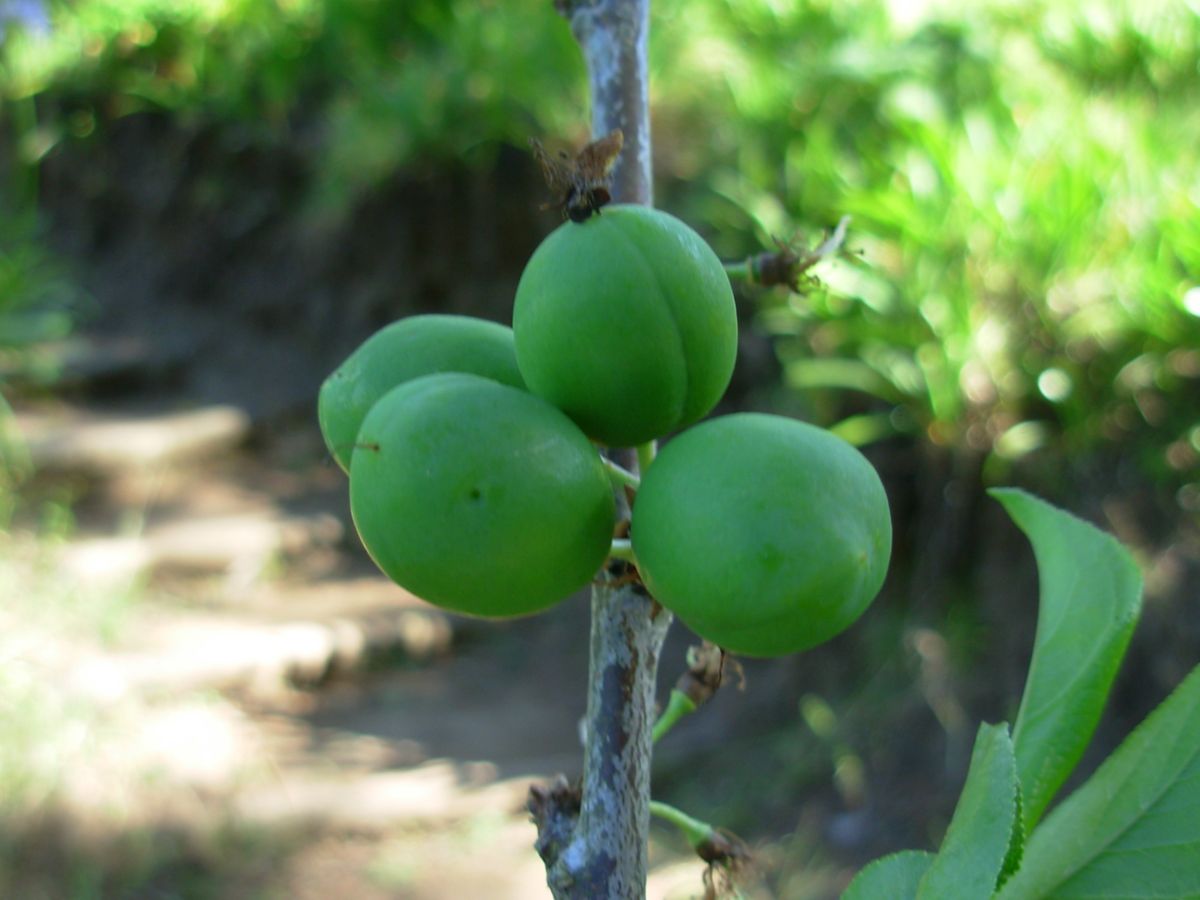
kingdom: Plantae
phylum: Tracheophyta
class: Magnoliopsida
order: Rosales
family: Rosaceae
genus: Prunus
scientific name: Prunus salicina
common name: Asian plum
